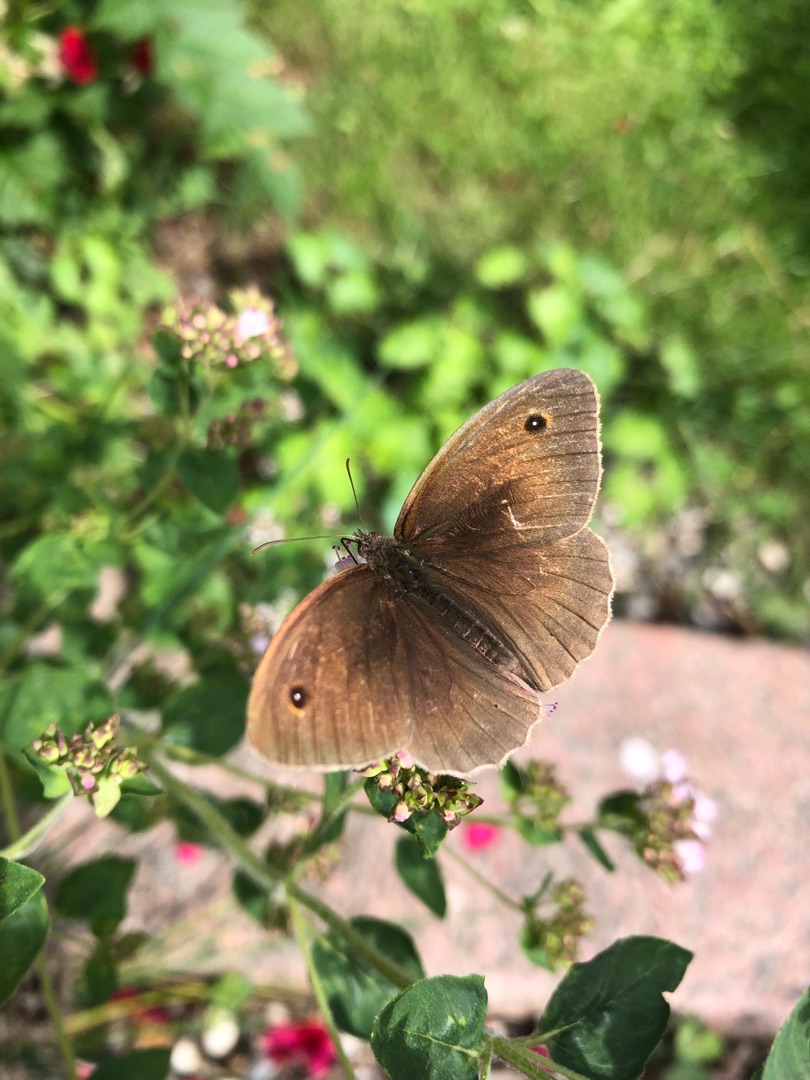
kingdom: Animalia
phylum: Arthropoda
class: Insecta
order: Lepidoptera
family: Nymphalidae
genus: Maniola
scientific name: Maniola jurtina
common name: Græsrandøje
